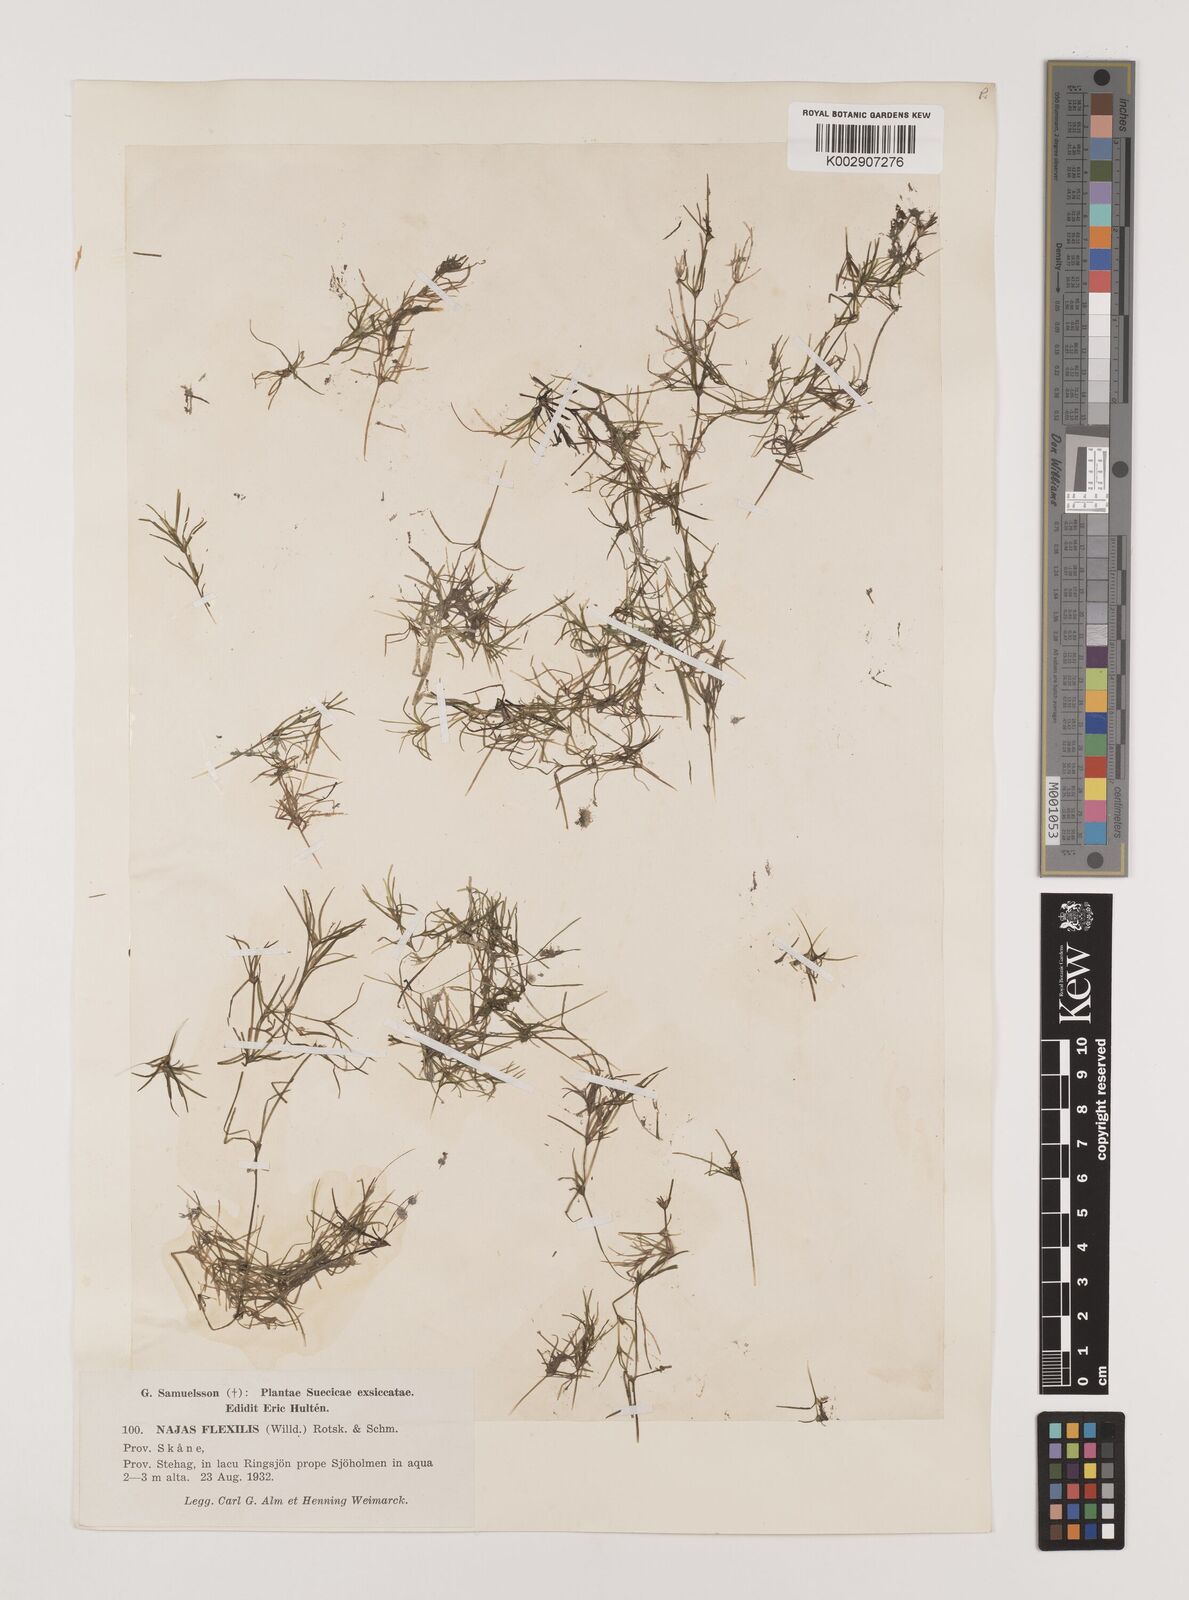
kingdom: Plantae
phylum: Tracheophyta
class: Liliopsida
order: Alismatales
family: Hydrocharitaceae
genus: Najas
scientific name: Najas flexilis
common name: Slender naiad
